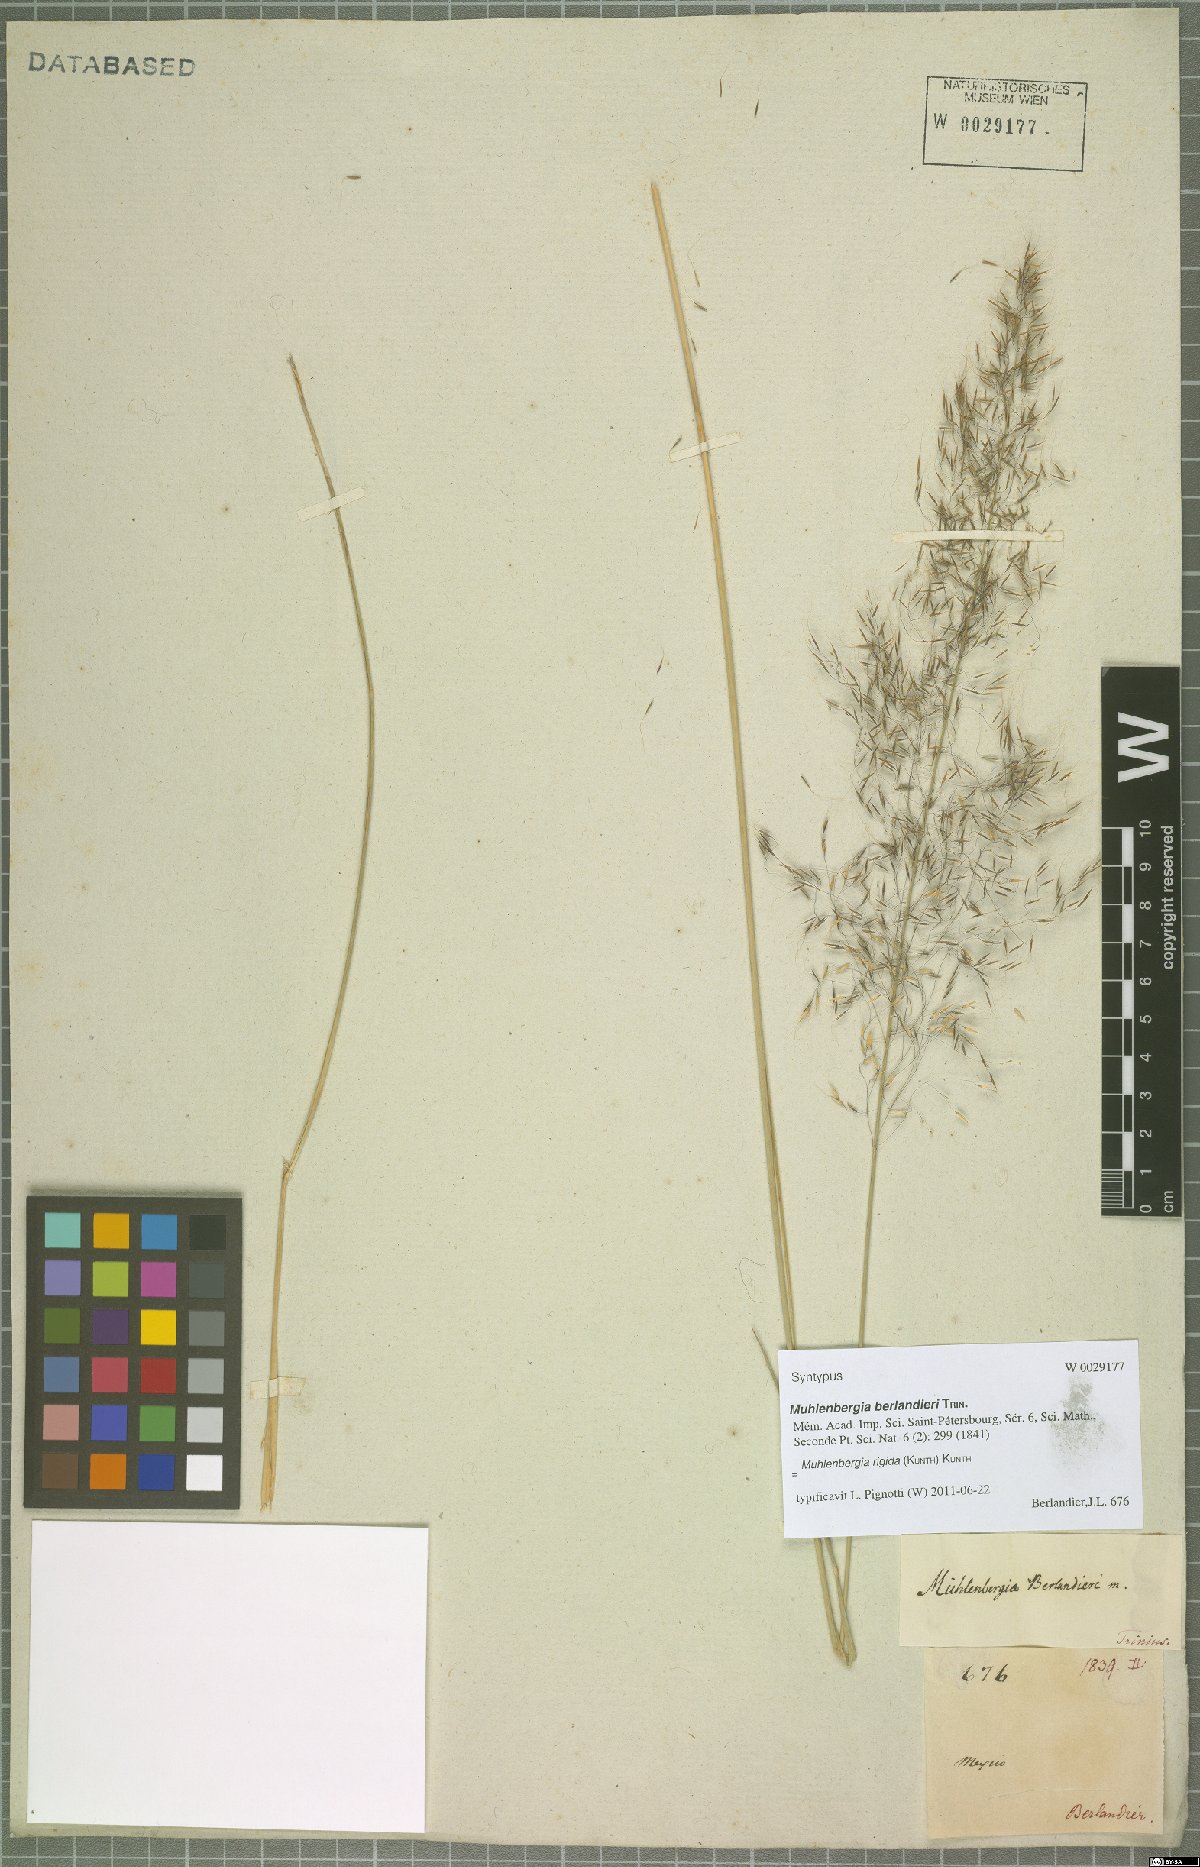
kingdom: Plantae
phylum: Tracheophyta
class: Liliopsida
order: Poales
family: Poaceae
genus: Muhlenbergia
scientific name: Muhlenbergia rigida
